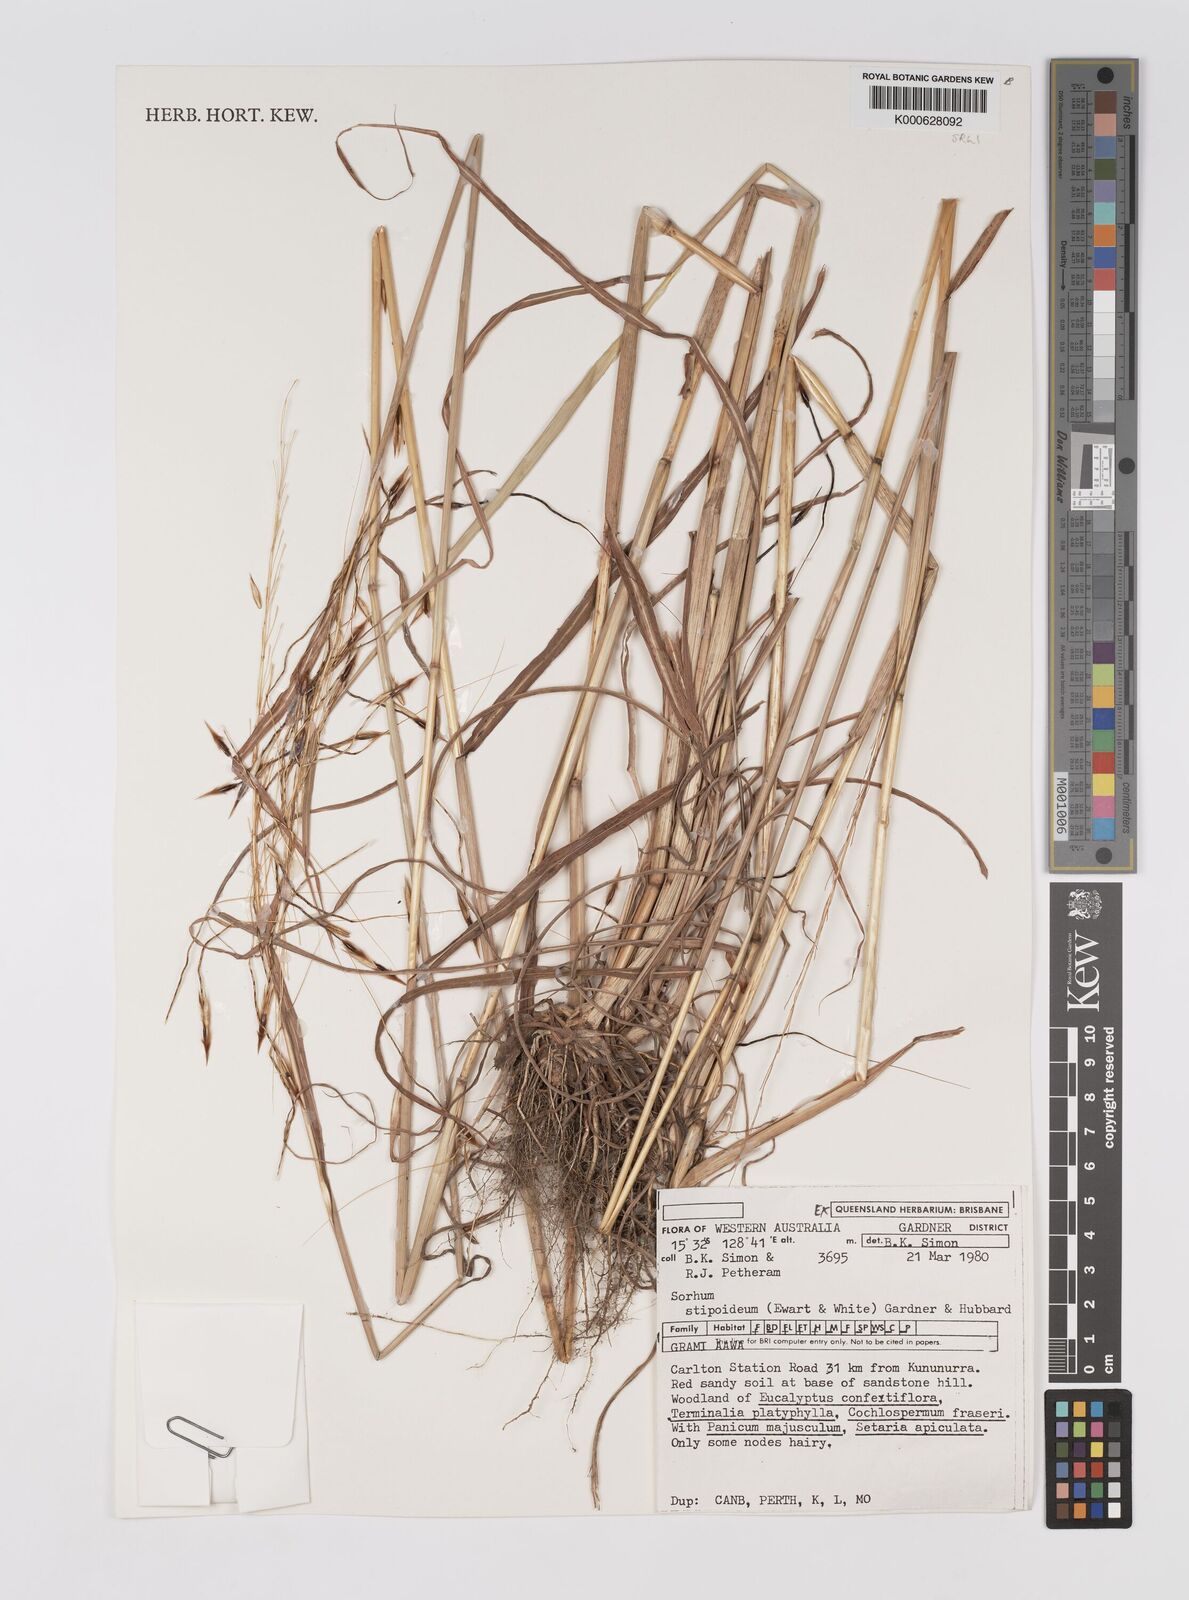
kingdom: Plantae
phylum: Tracheophyta
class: Liliopsida
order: Poales
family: Poaceae
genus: Sarga
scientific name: Sarga stipoidea
